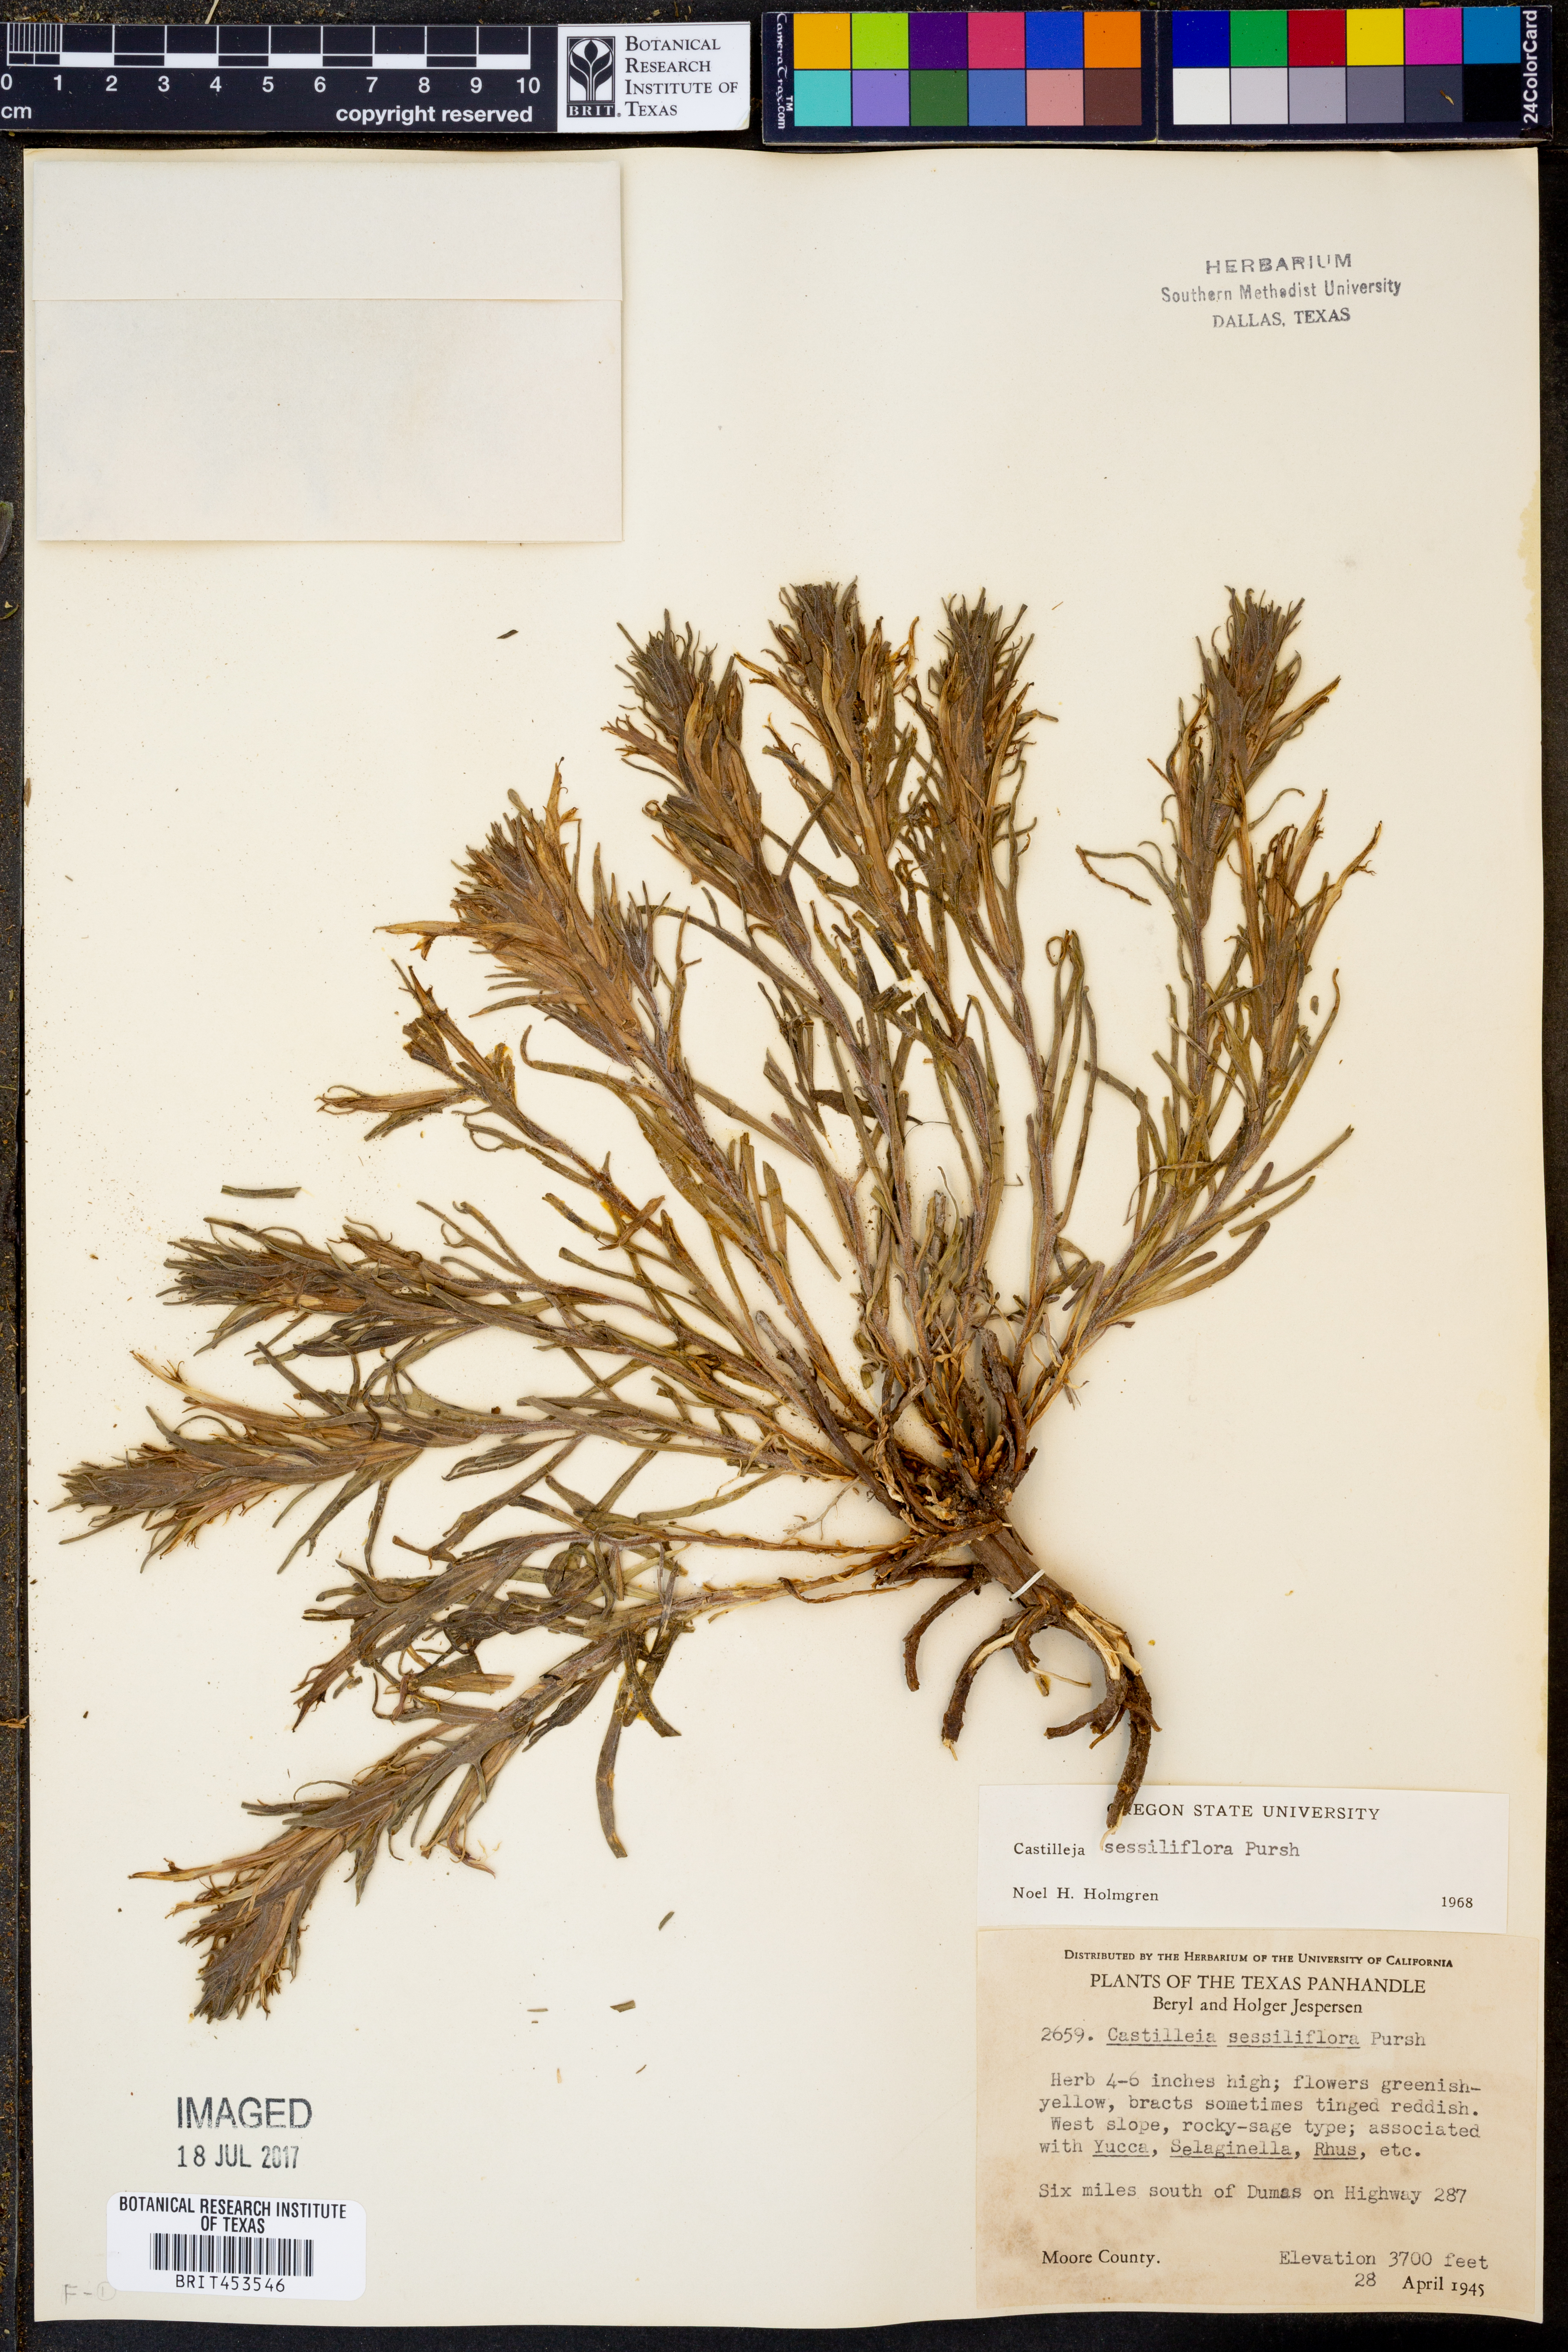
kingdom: Plantae
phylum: Tracheophyta
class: Magnoliopsida
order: Lamiales
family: Orobanchaceae
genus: Castilleja
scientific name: Castilleja sessiliflora
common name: Downy paintbrush
